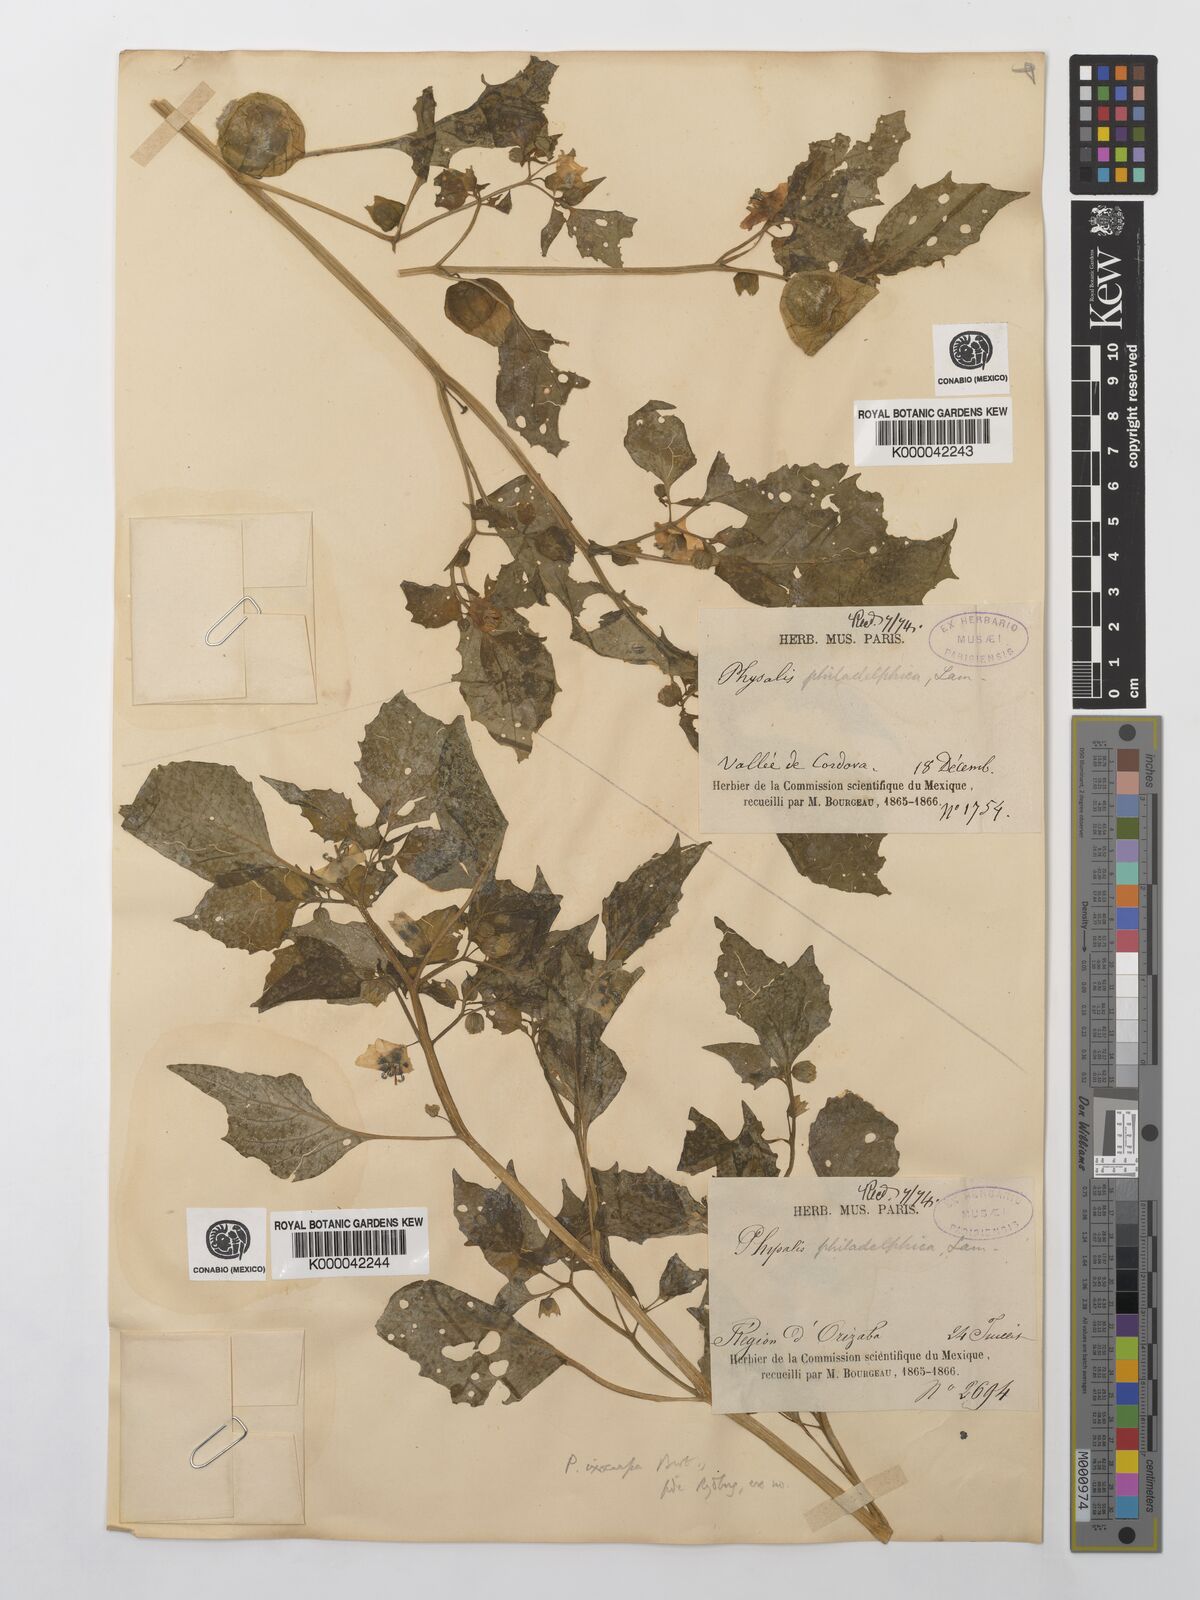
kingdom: Plantae
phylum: Tracheophyta
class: Magnoliopsida
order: Solanales
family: Solanaceae
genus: Physalis
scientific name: Physalis philadelphica
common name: Husk-tomato
